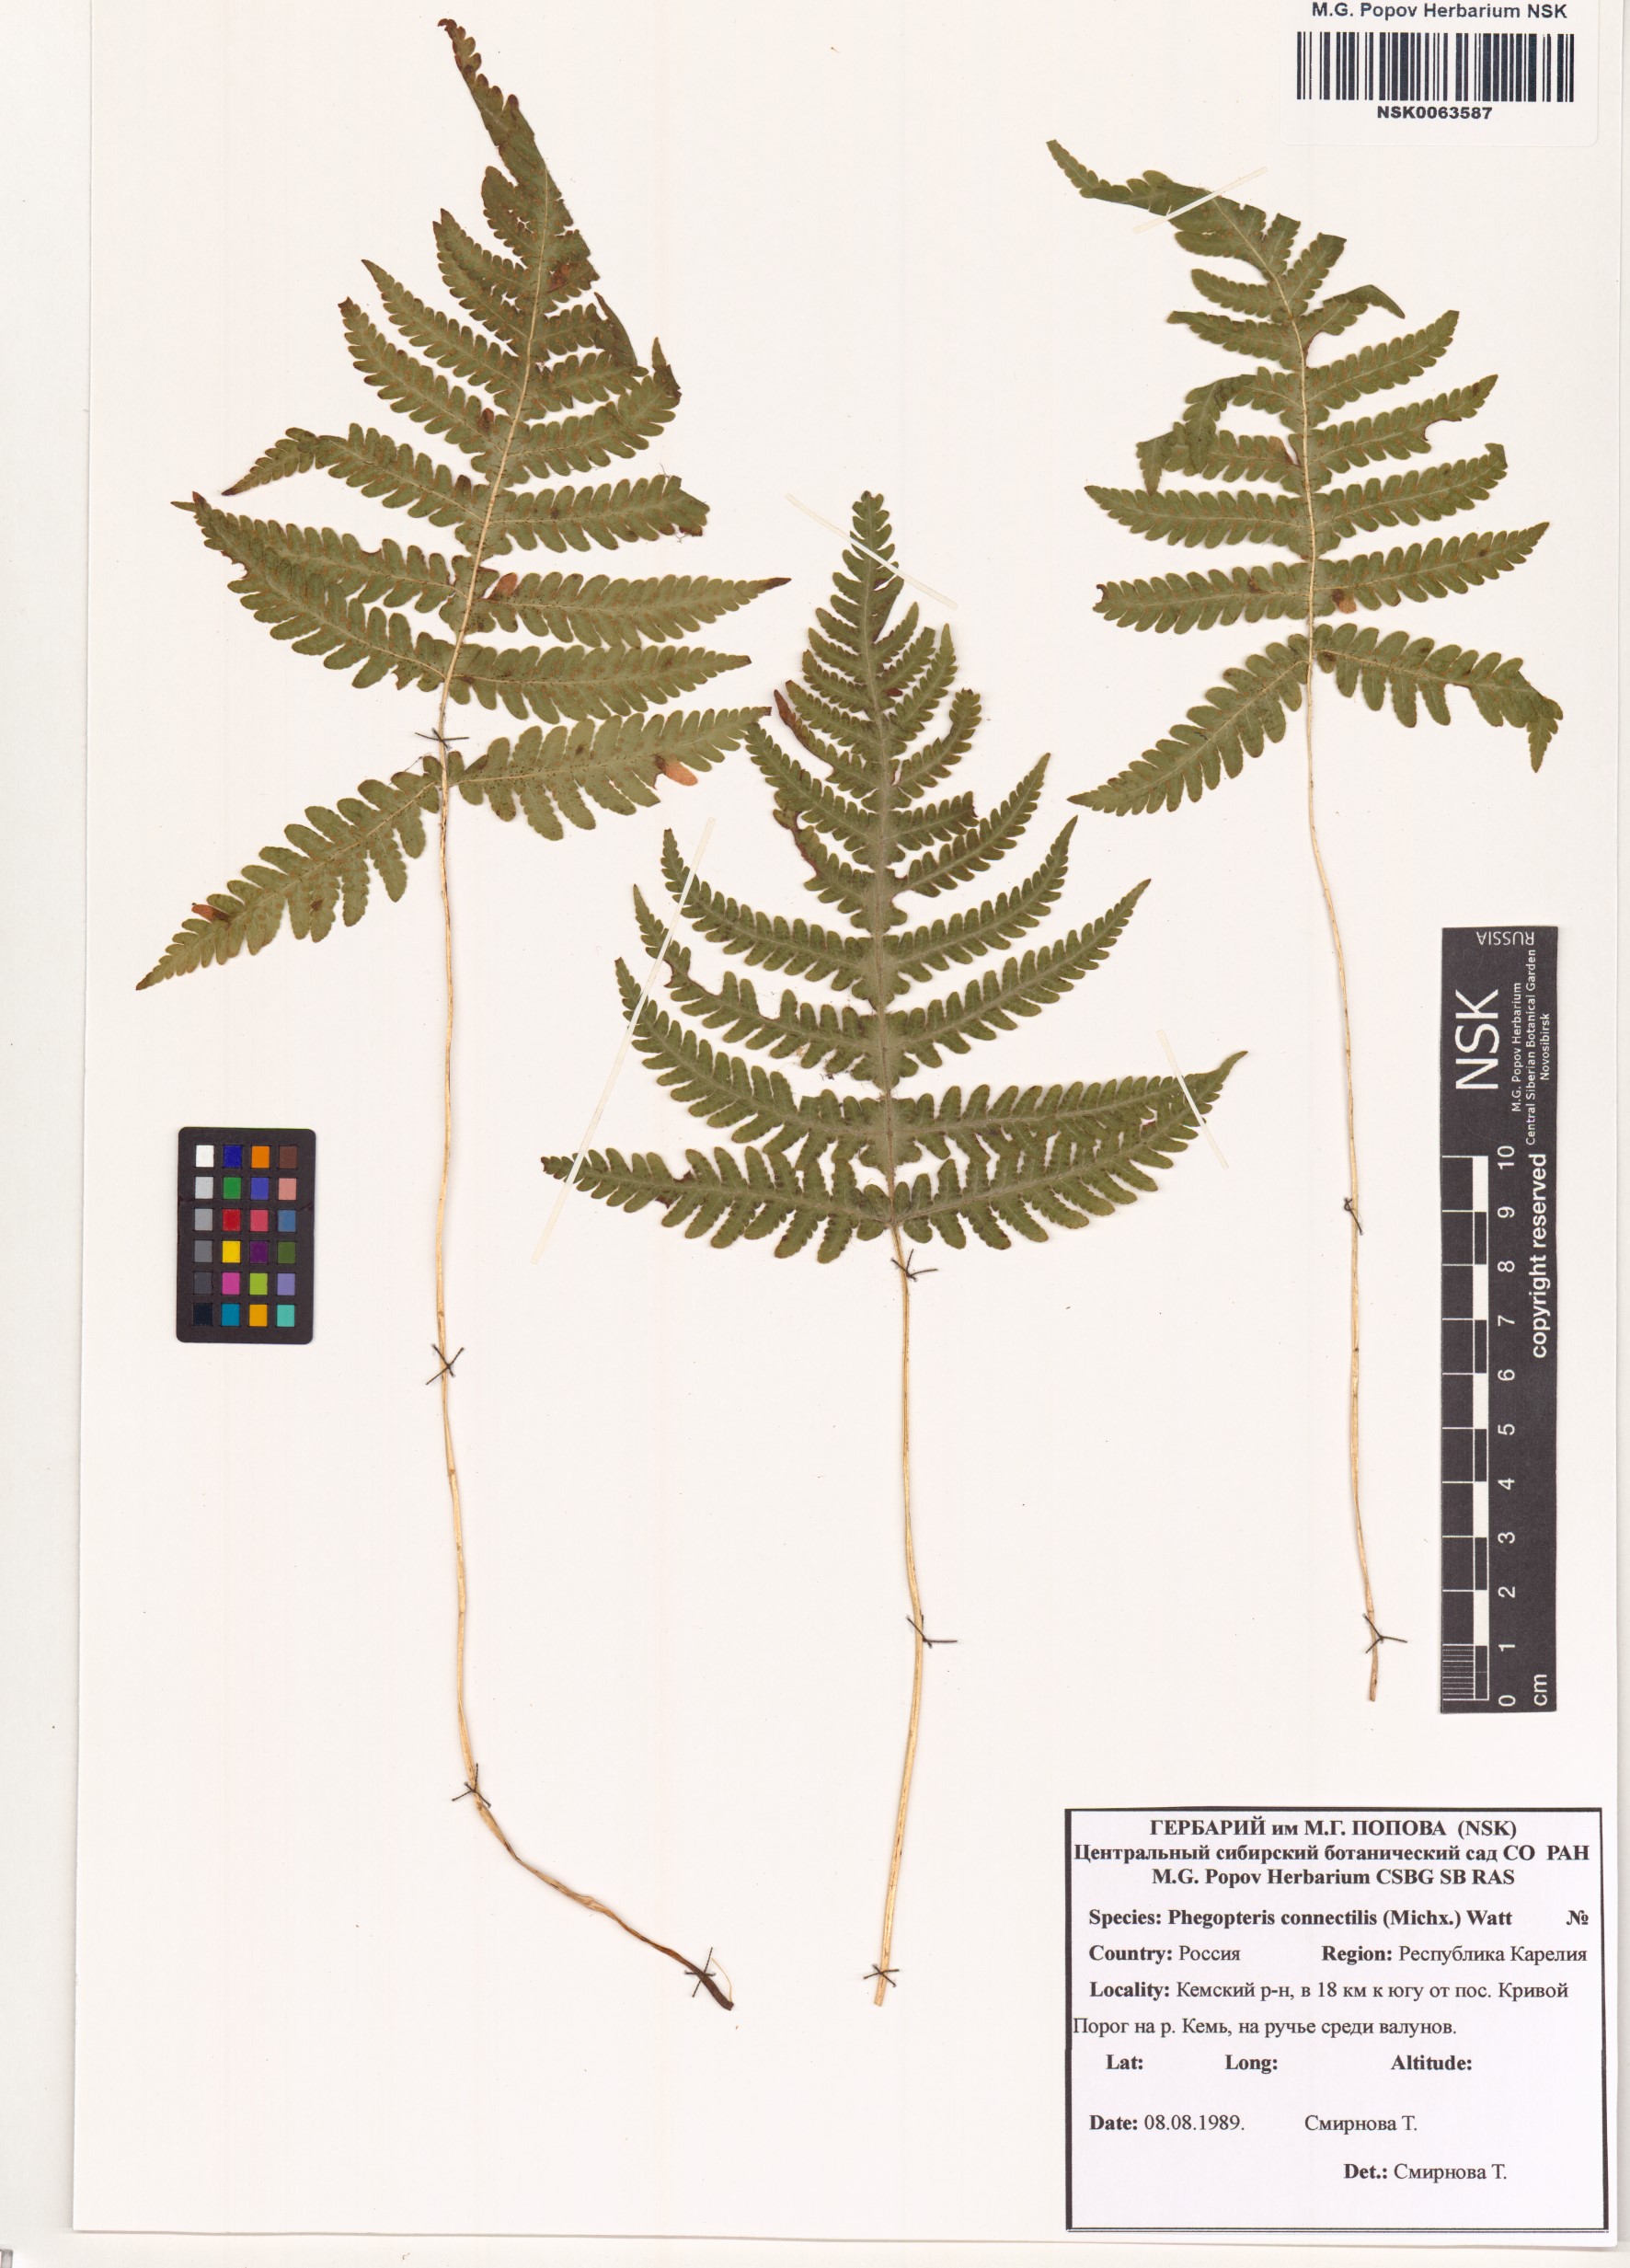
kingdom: Plantae
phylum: Tracheophyta
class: Polypodiopsida
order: Polypodiales
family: Thelypteridaceae
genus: Phegopteris
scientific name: Phegopteris connectilis
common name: Beech fern
